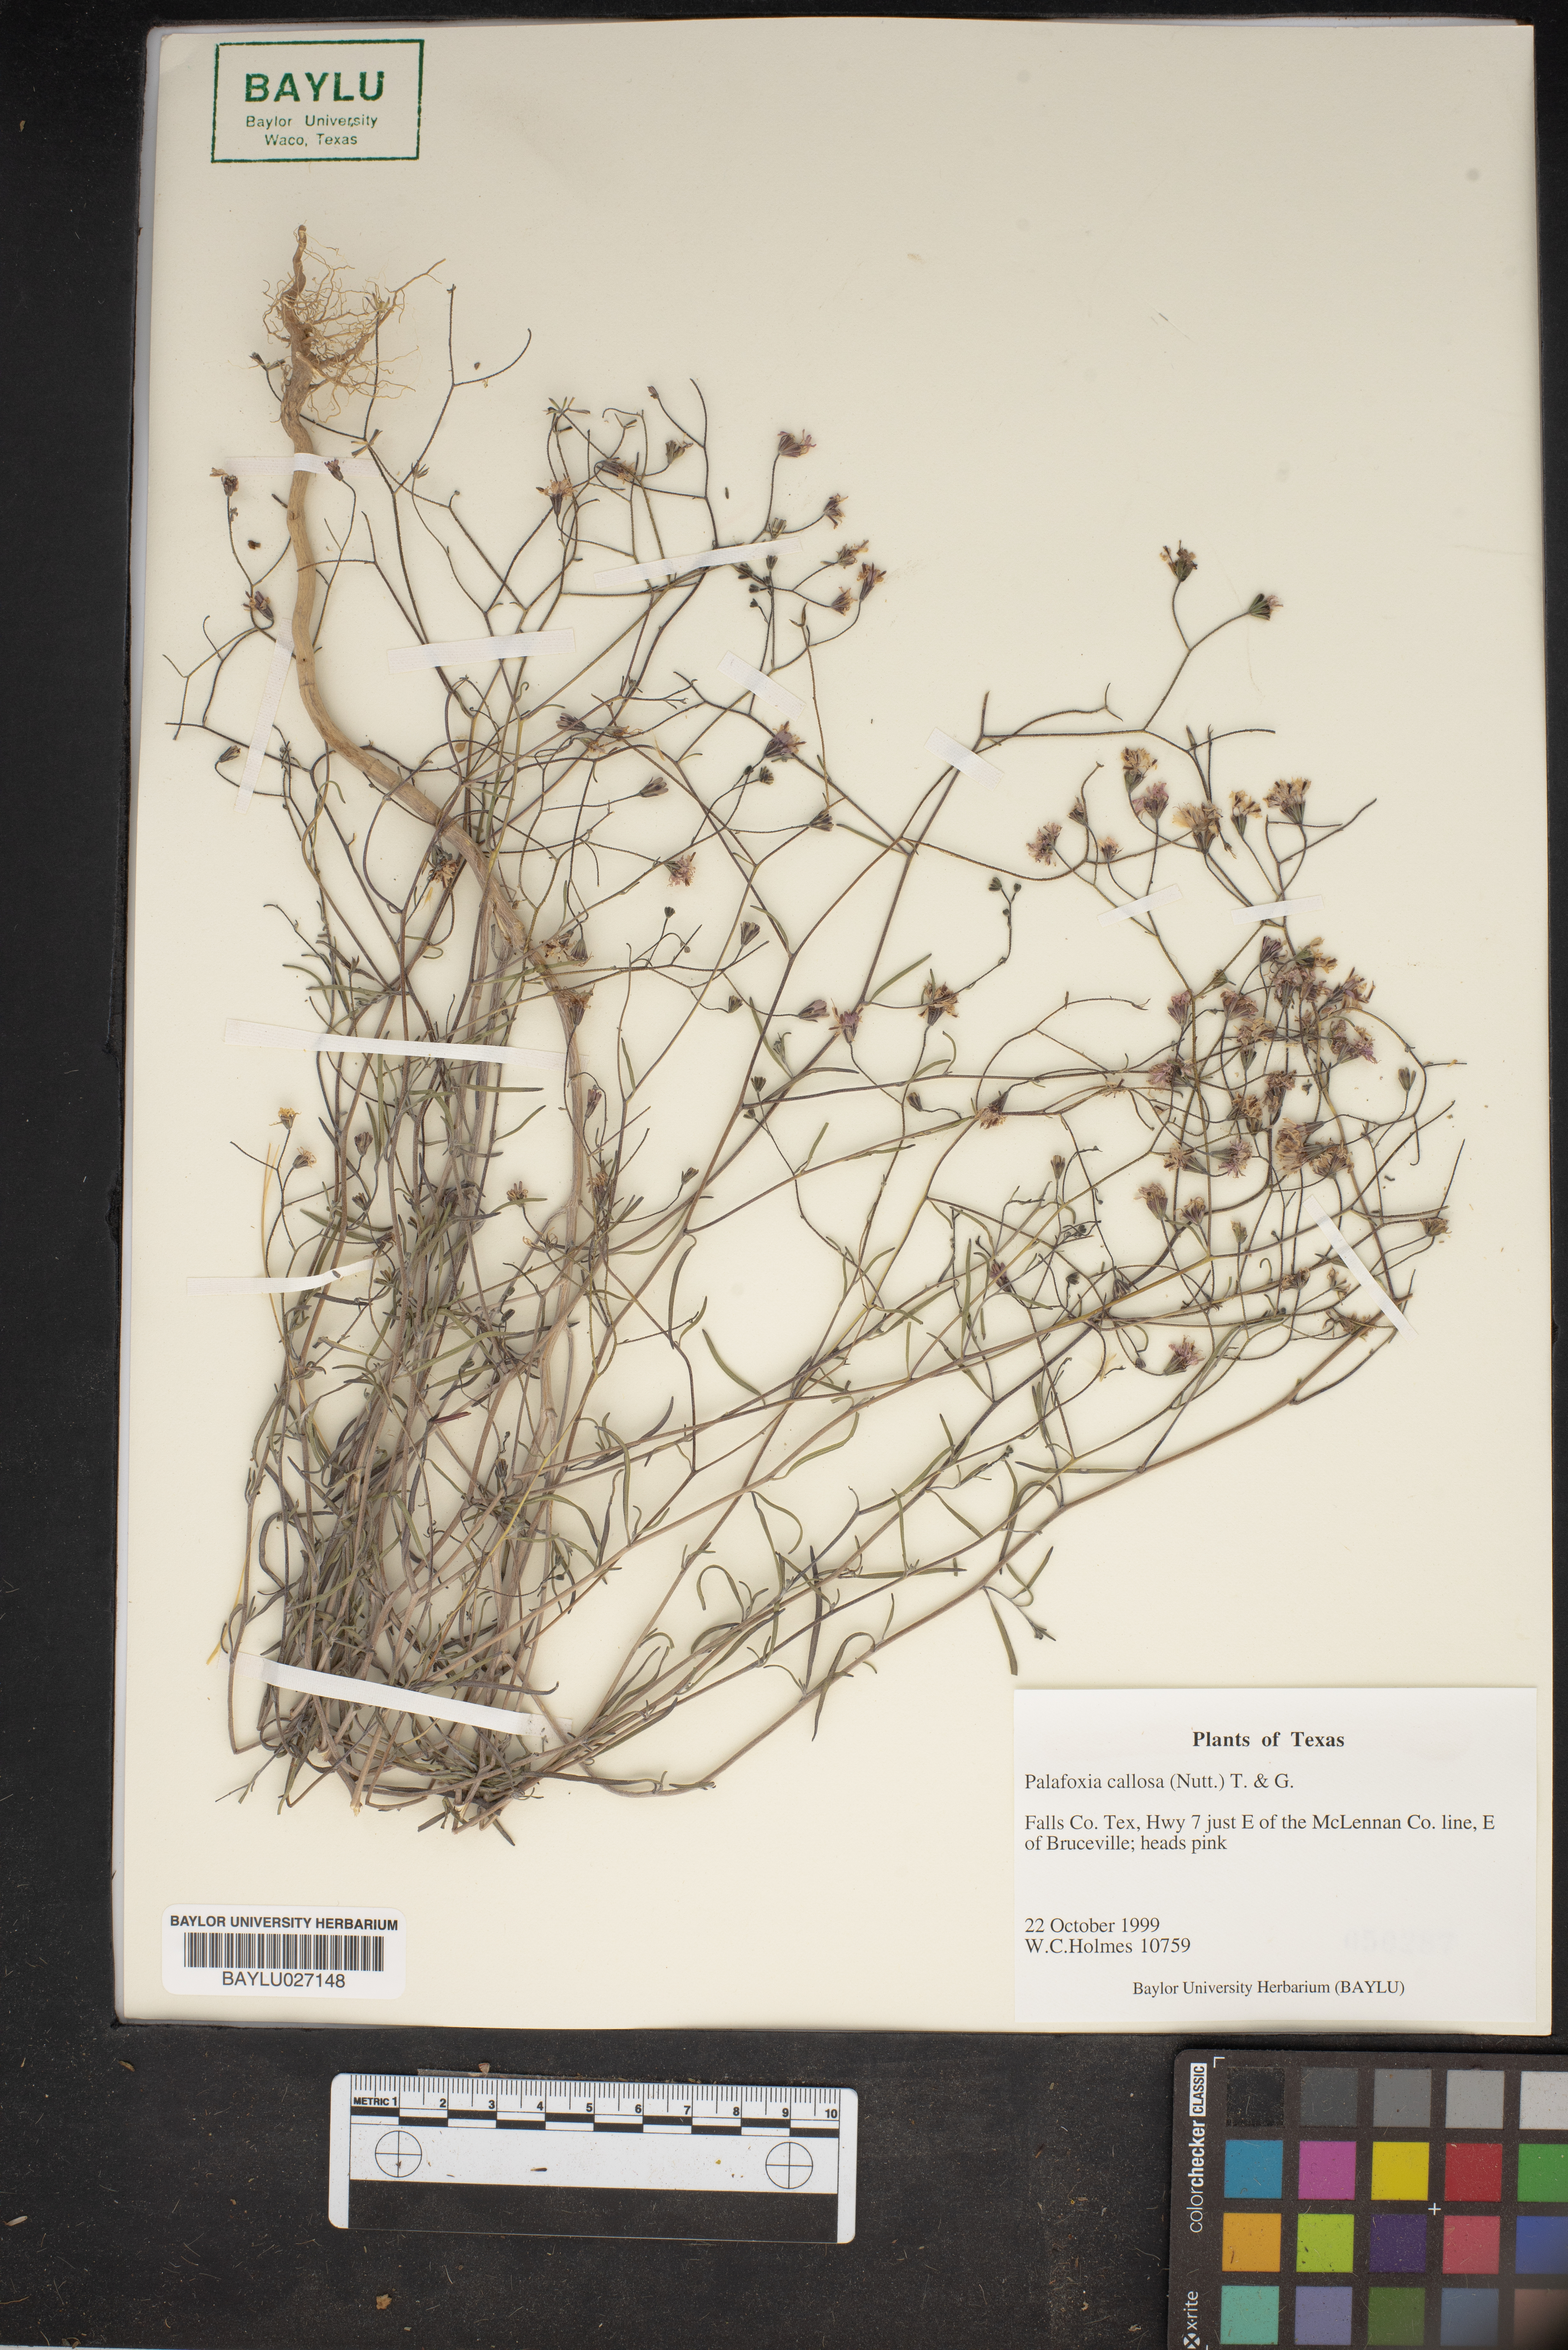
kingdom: Plantae
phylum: Tracheophyta
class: Magnoliopsida
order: Asterales
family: Asteraceae
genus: Palafoxia
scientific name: Palafoxia callosa
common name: Small palafox
